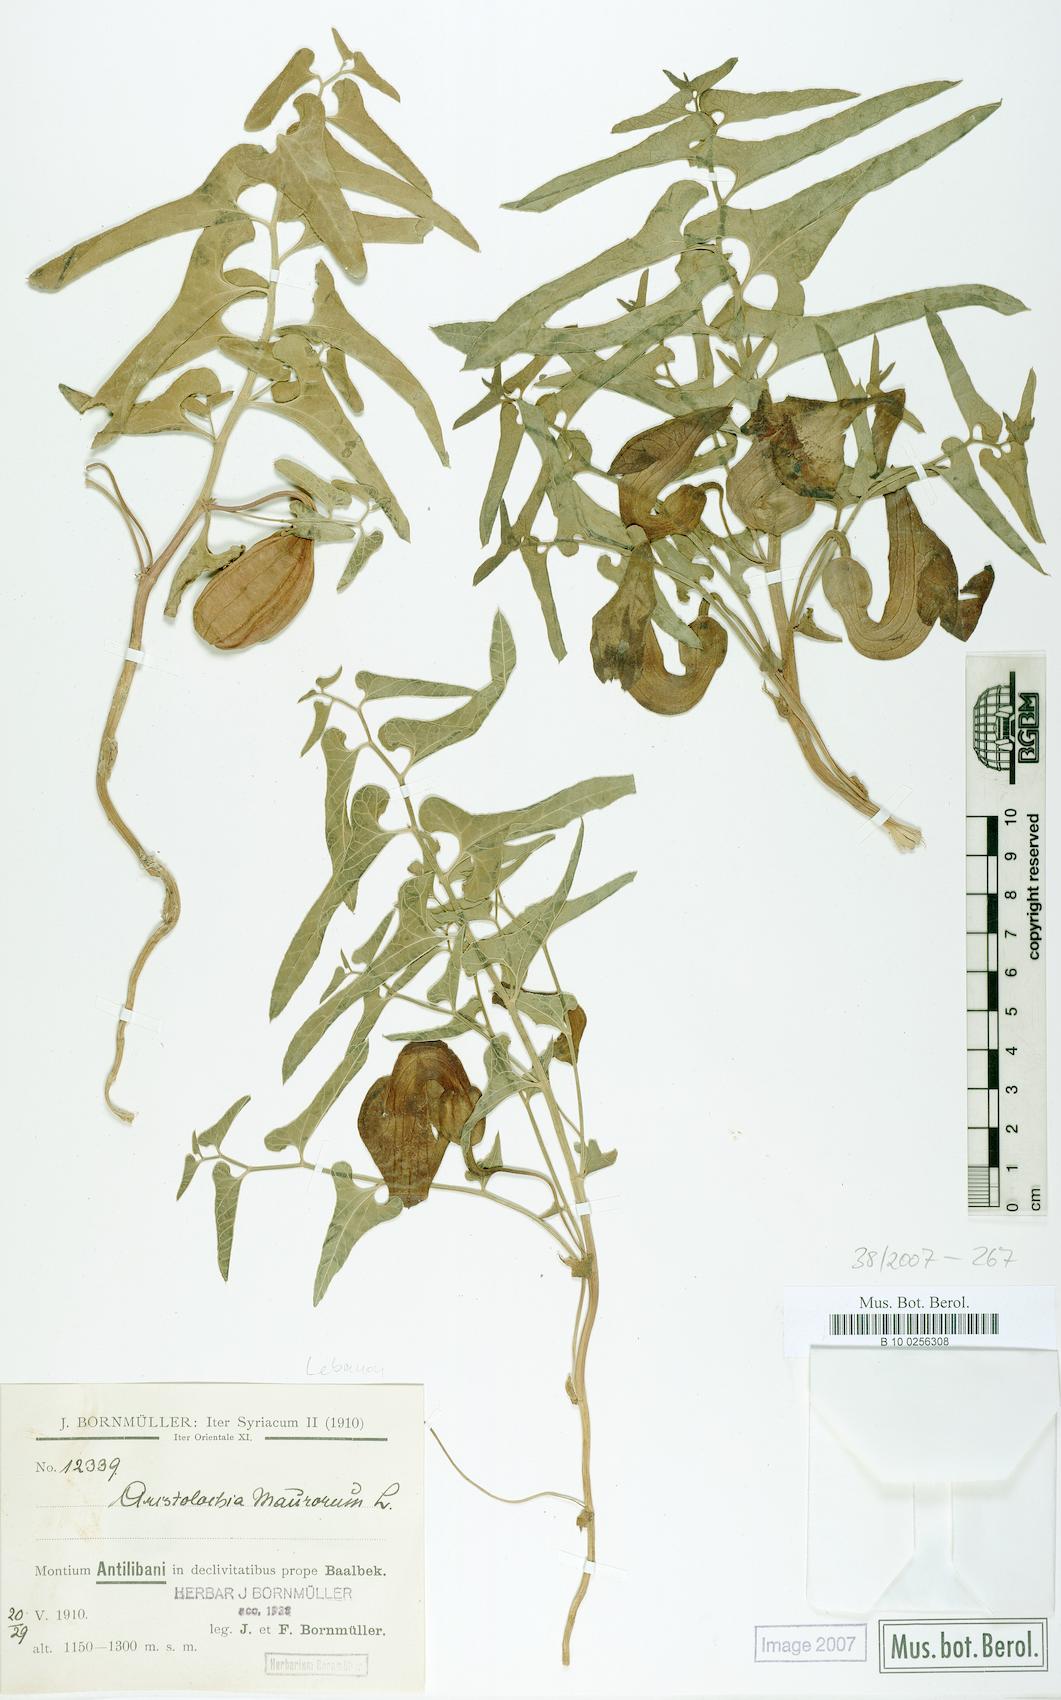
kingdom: Plantae
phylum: Tracheophyta
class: Magnoliopsida
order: Piperales
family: Aristolochiaceae
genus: Aristolochia
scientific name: Aristolochia bottae
